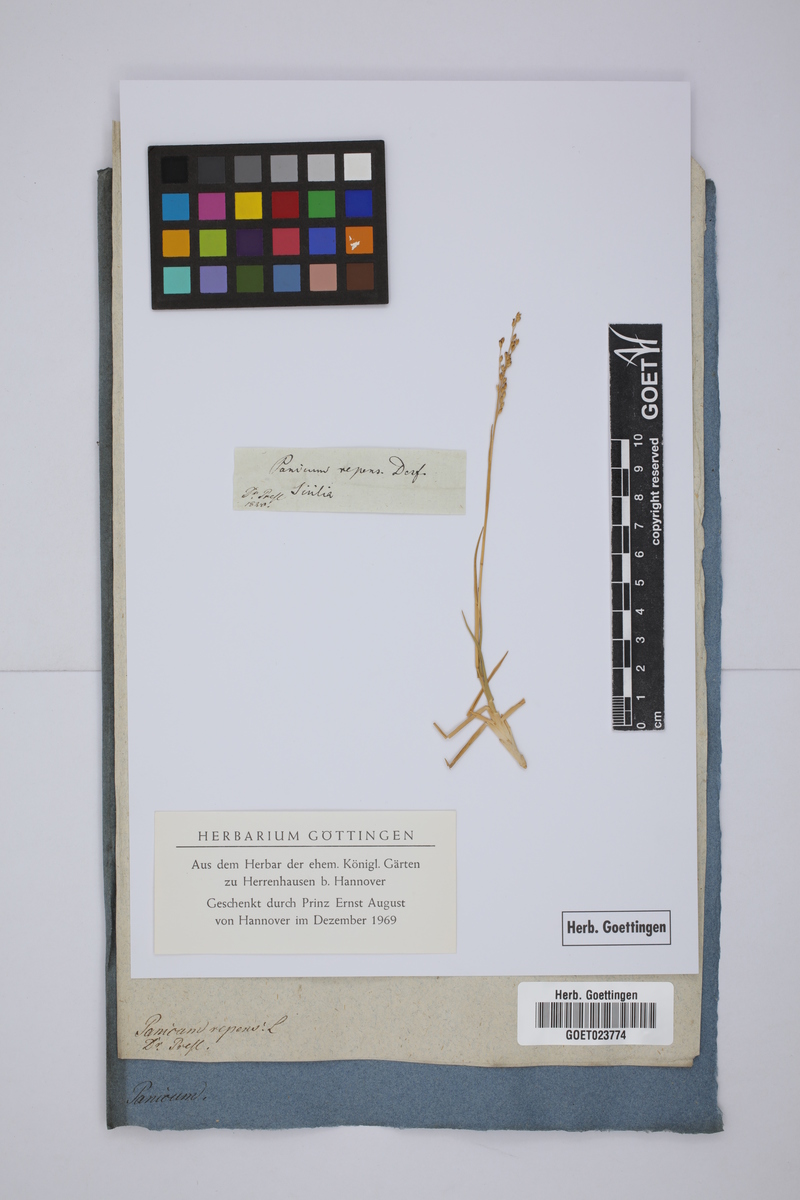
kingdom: Plantae
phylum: Tracheophyta
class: Liliopsida
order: Poales
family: Poaceae
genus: Panicum
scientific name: Panicum repens
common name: Torpedo grass
